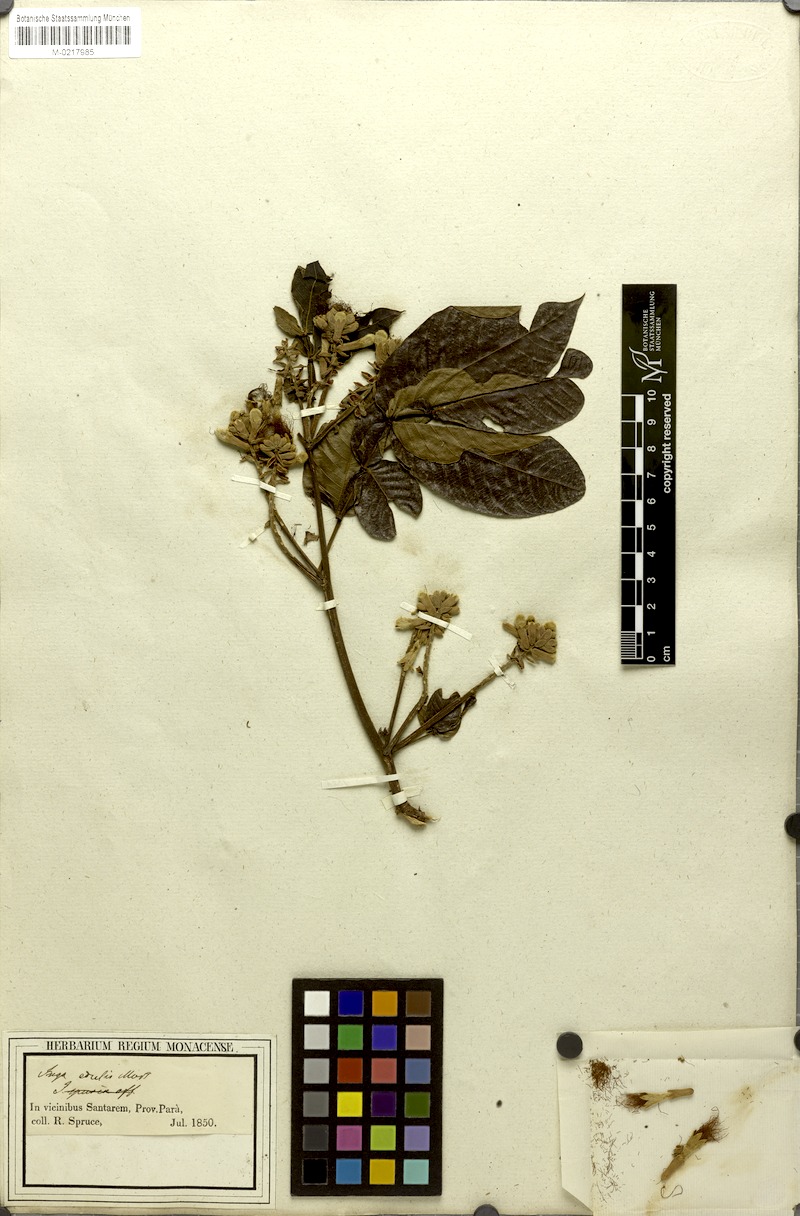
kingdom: Plantae
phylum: Tracheophyta
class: Magnoliopsida
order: Fabales
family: Fabaceae
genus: Inga
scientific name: Inga edulis
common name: Ice cream bean
